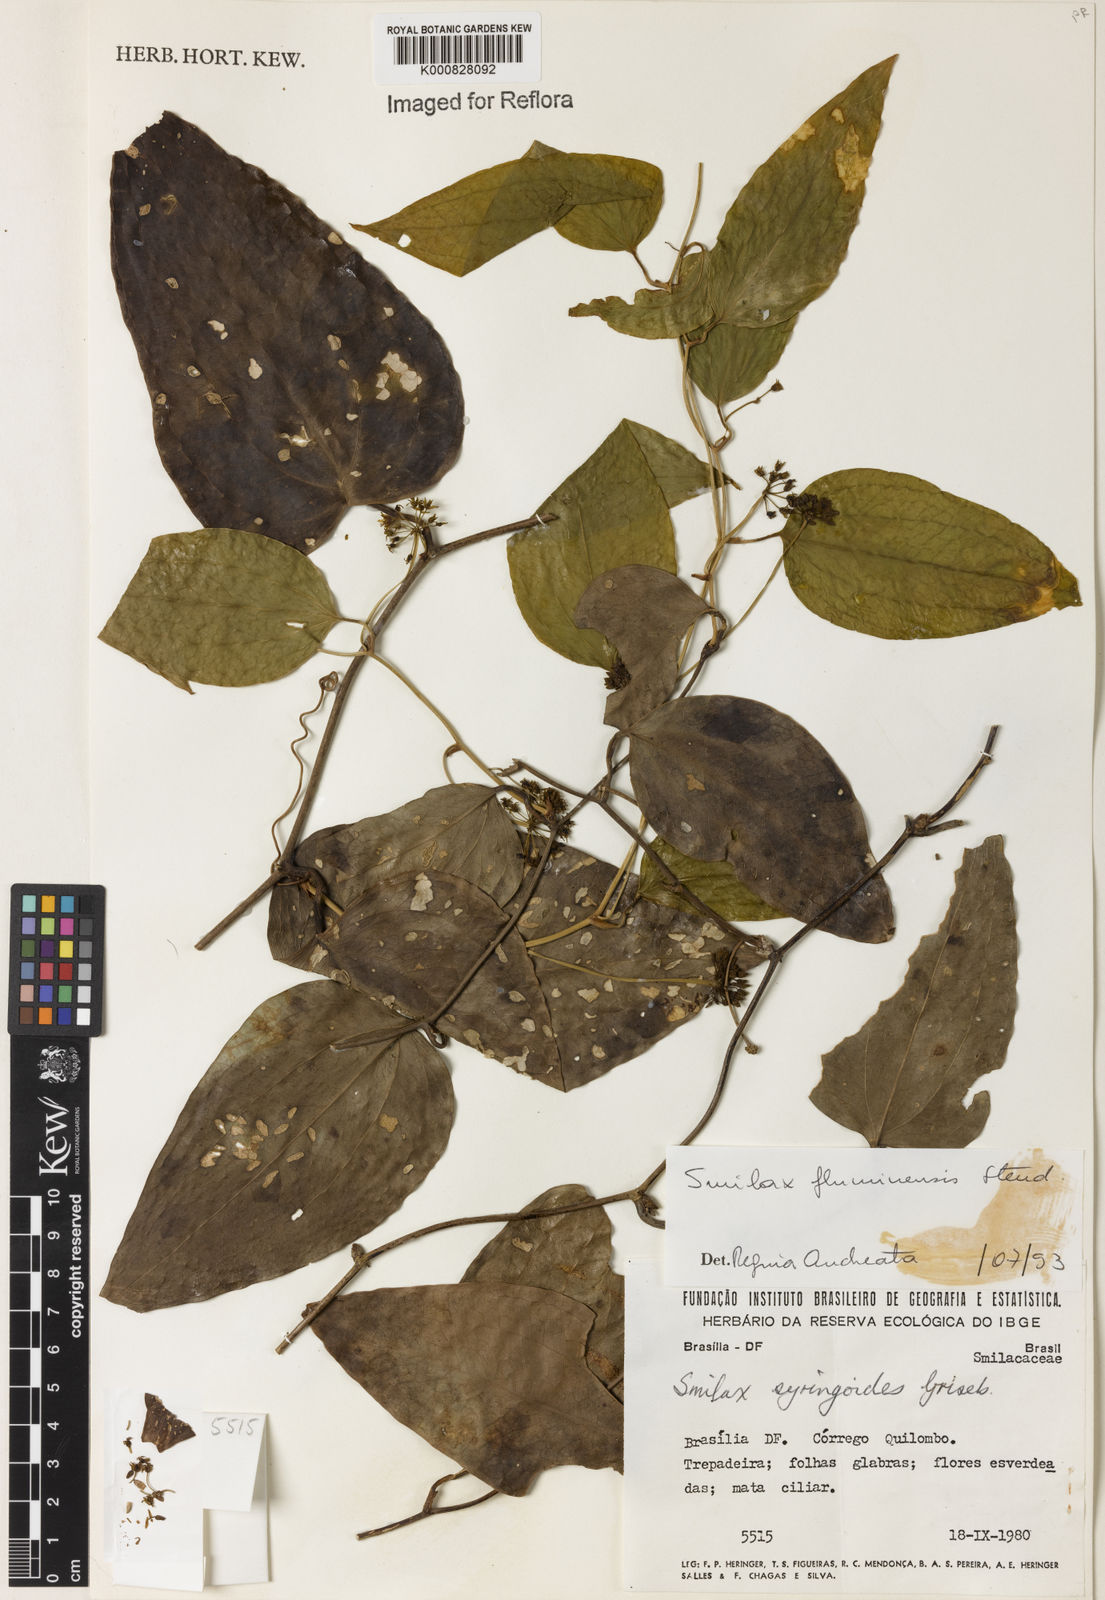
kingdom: Plantae
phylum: Tracheophyta
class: Liliopsida
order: Liliales
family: Smilacaceae
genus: Smilax
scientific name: Smilax fluminensis
